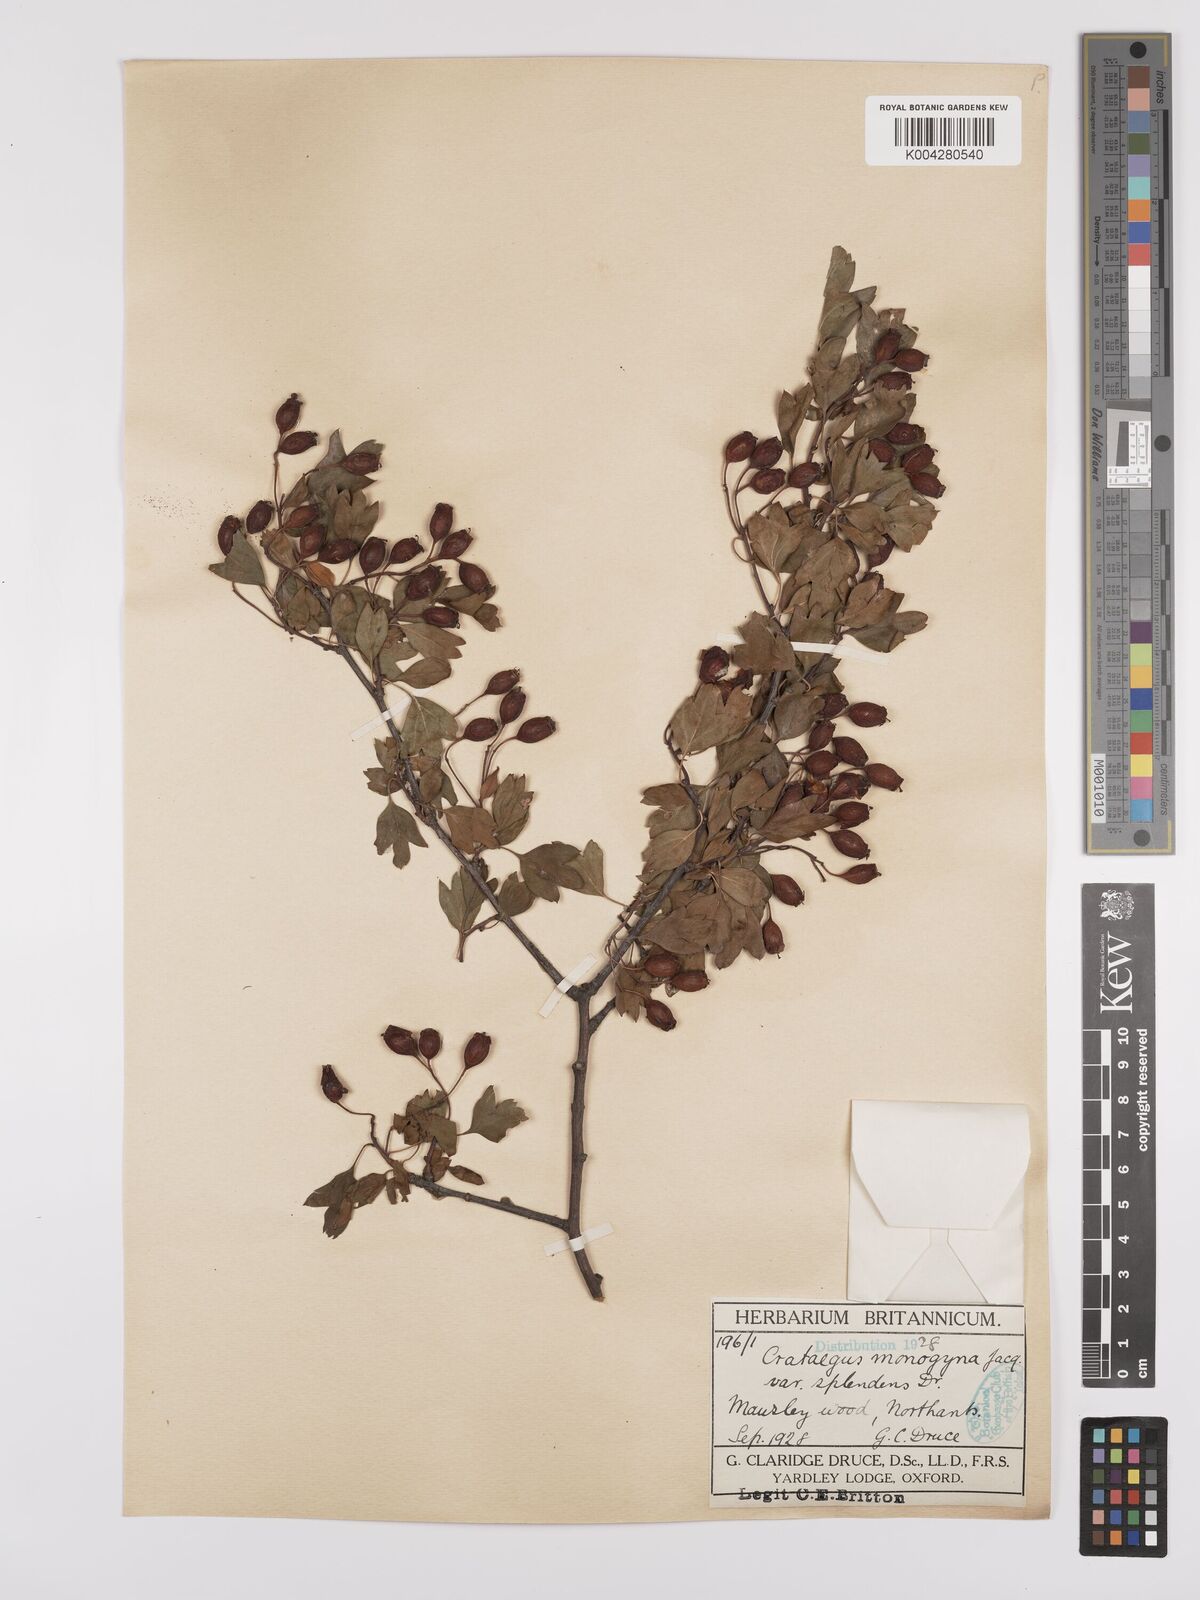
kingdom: Plantae
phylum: Tracheophyta
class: Magnoliopsida
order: Rosales
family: Rosaceae
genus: Crataegus
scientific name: Crataegus monogyna
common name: Hawthorn
